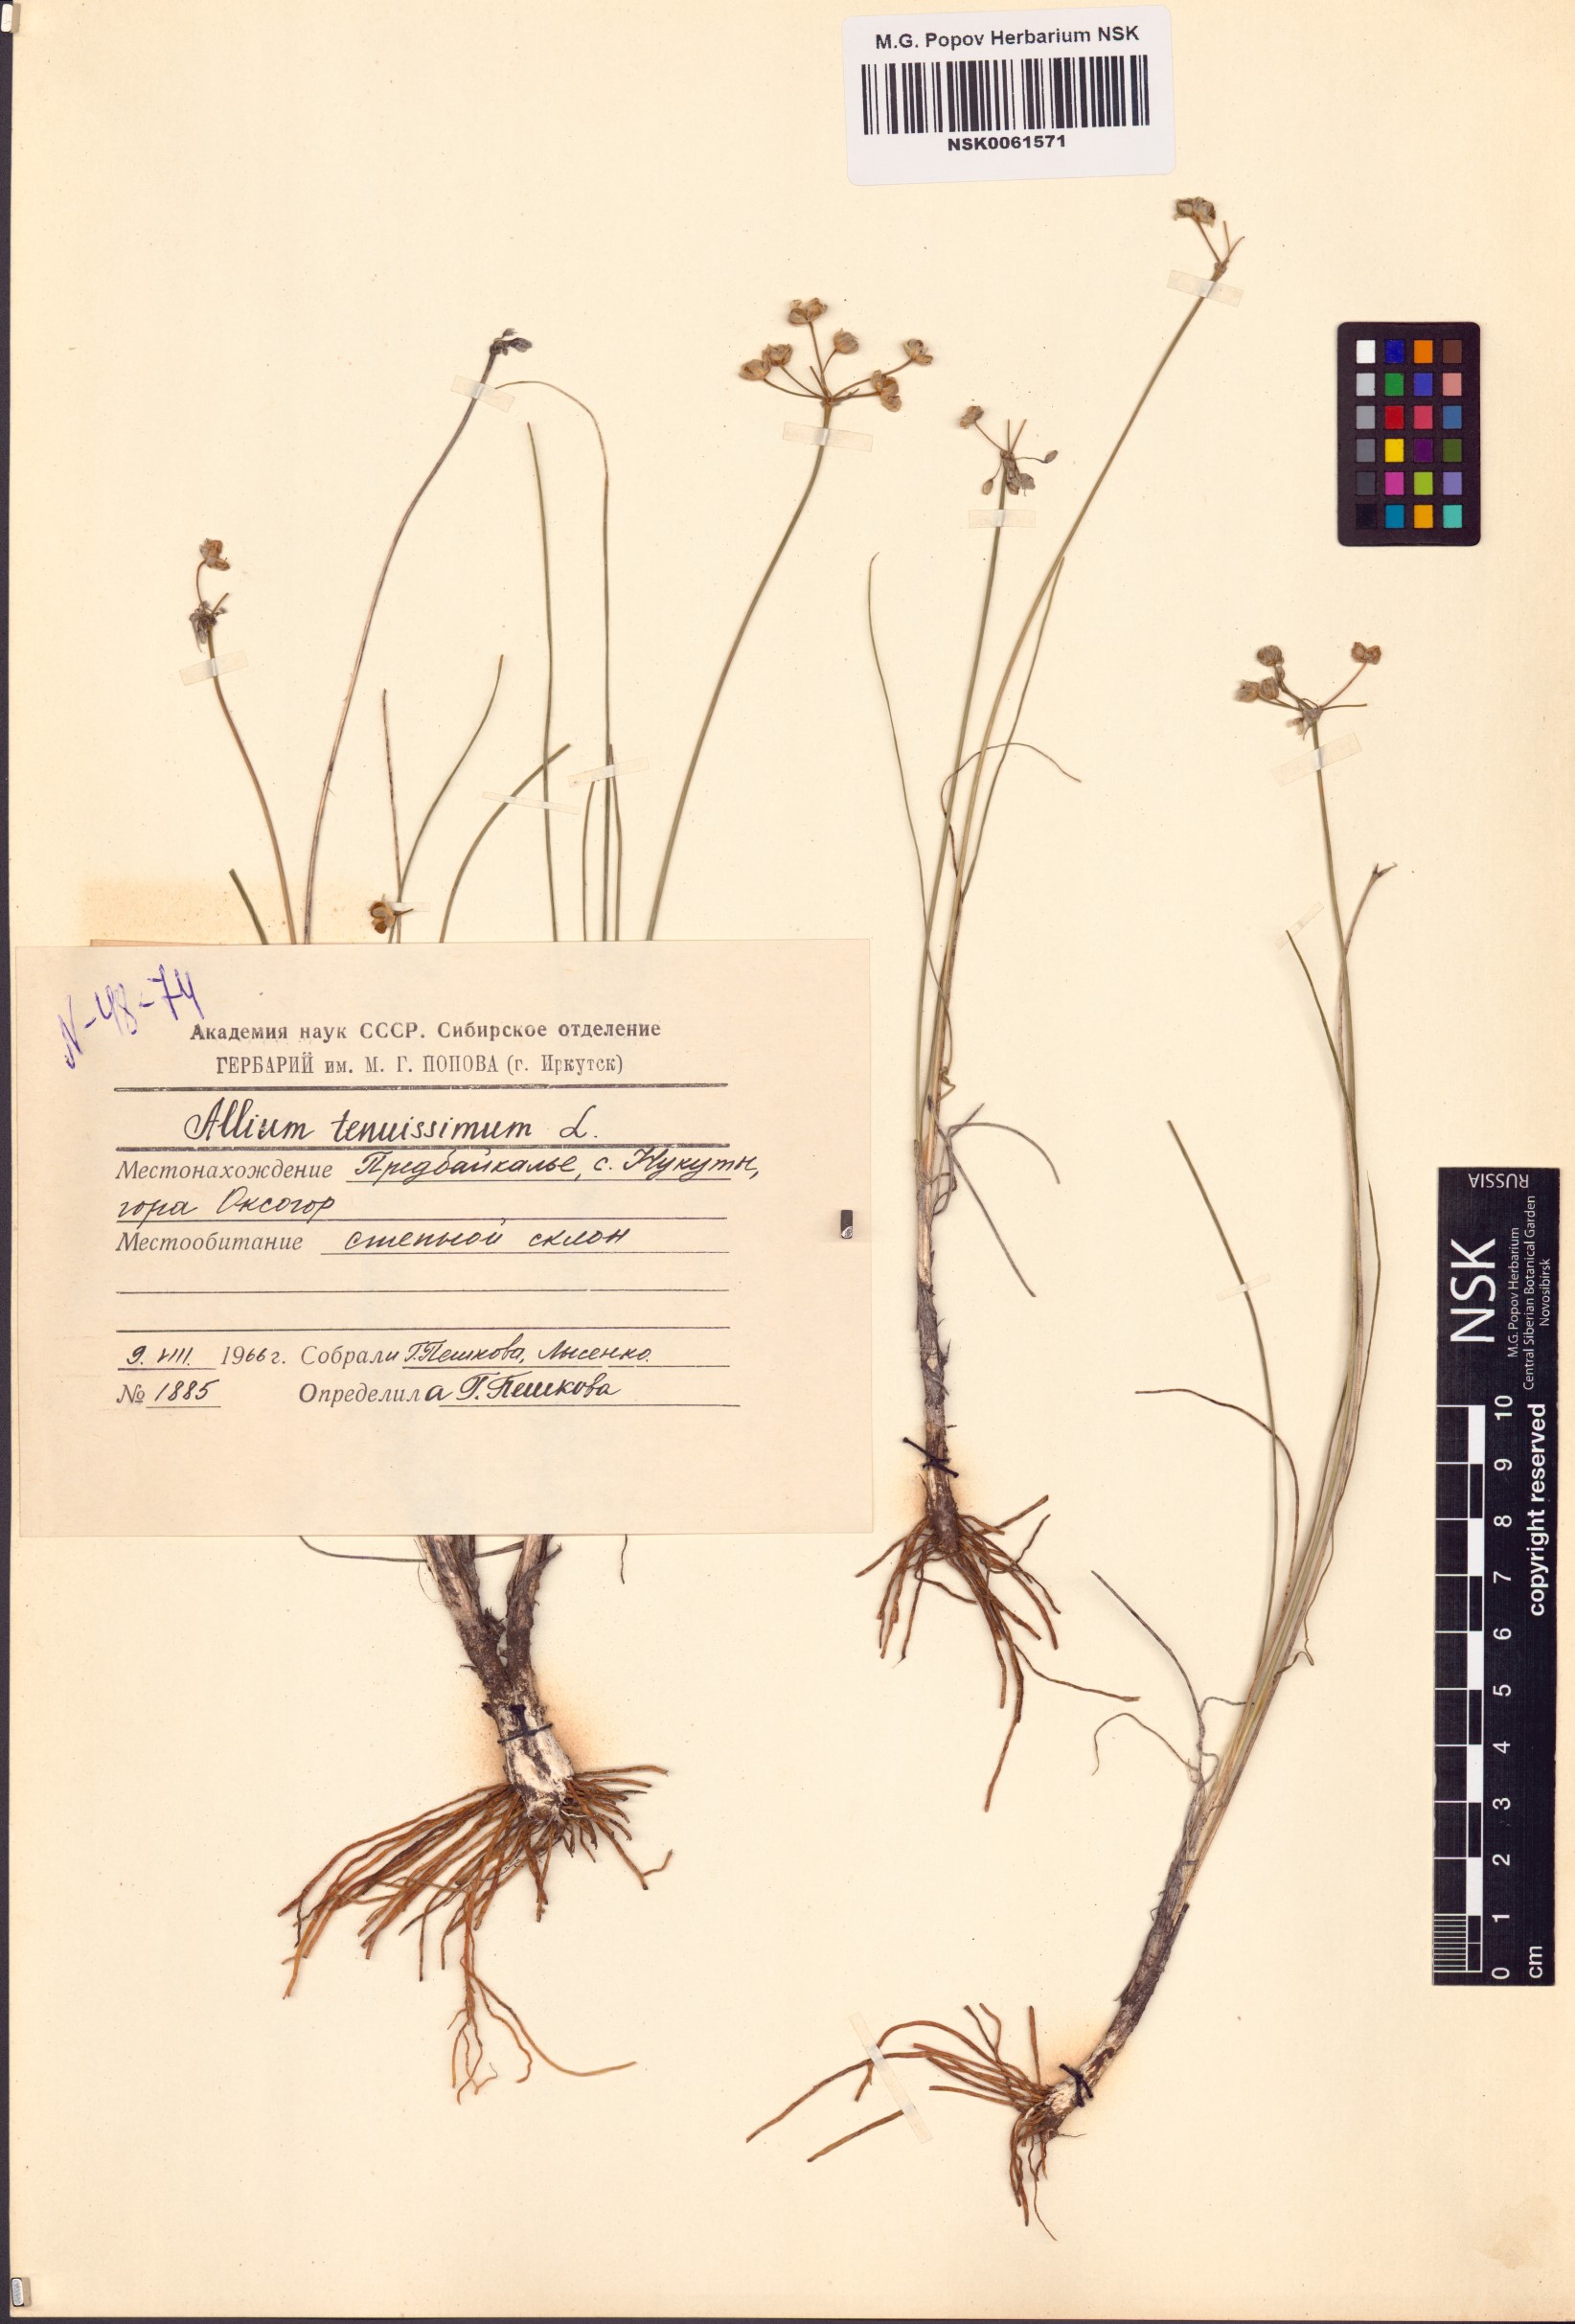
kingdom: Plantae
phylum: Tracheophyta
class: Liliopsida
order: Asparagales
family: Amaryllidaceae
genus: Allium
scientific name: Allium tenuissimum
